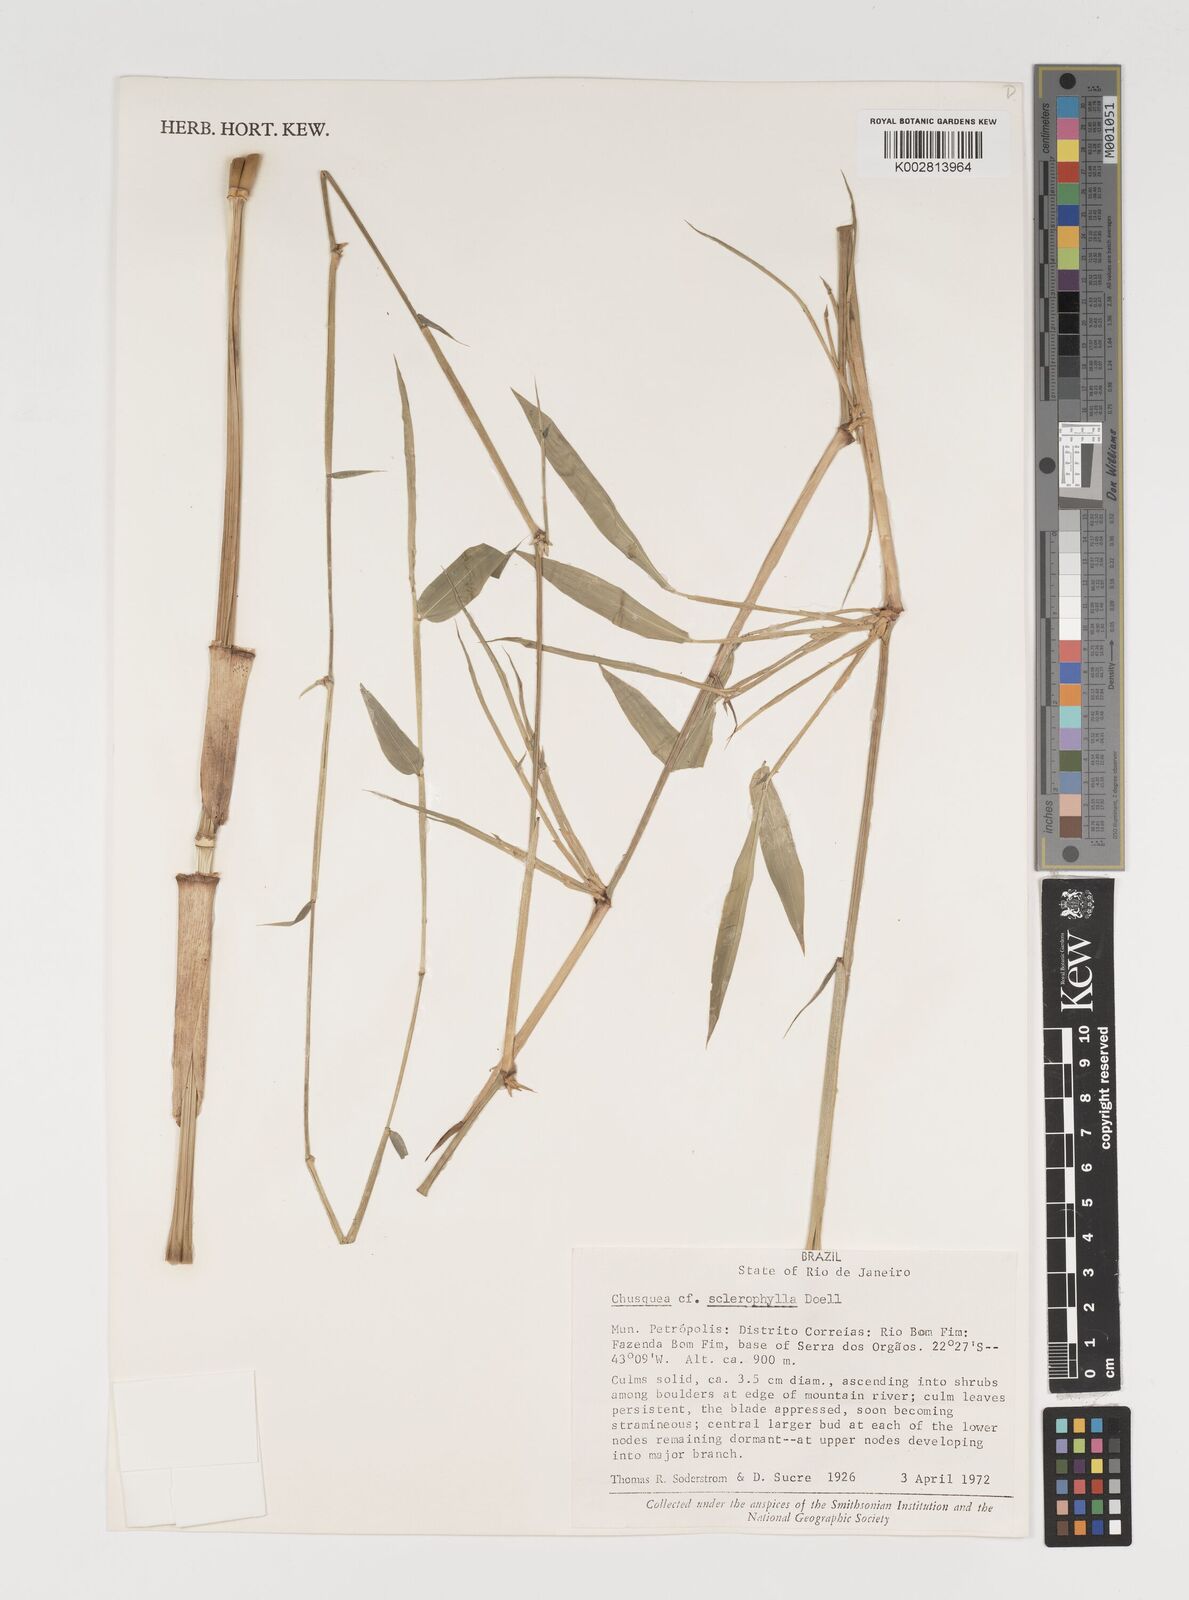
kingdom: Plantae
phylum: Tracheophyta
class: Liliopsida
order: Poales
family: Poaceae
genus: Chusquea
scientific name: Chusquea sclerophylla
